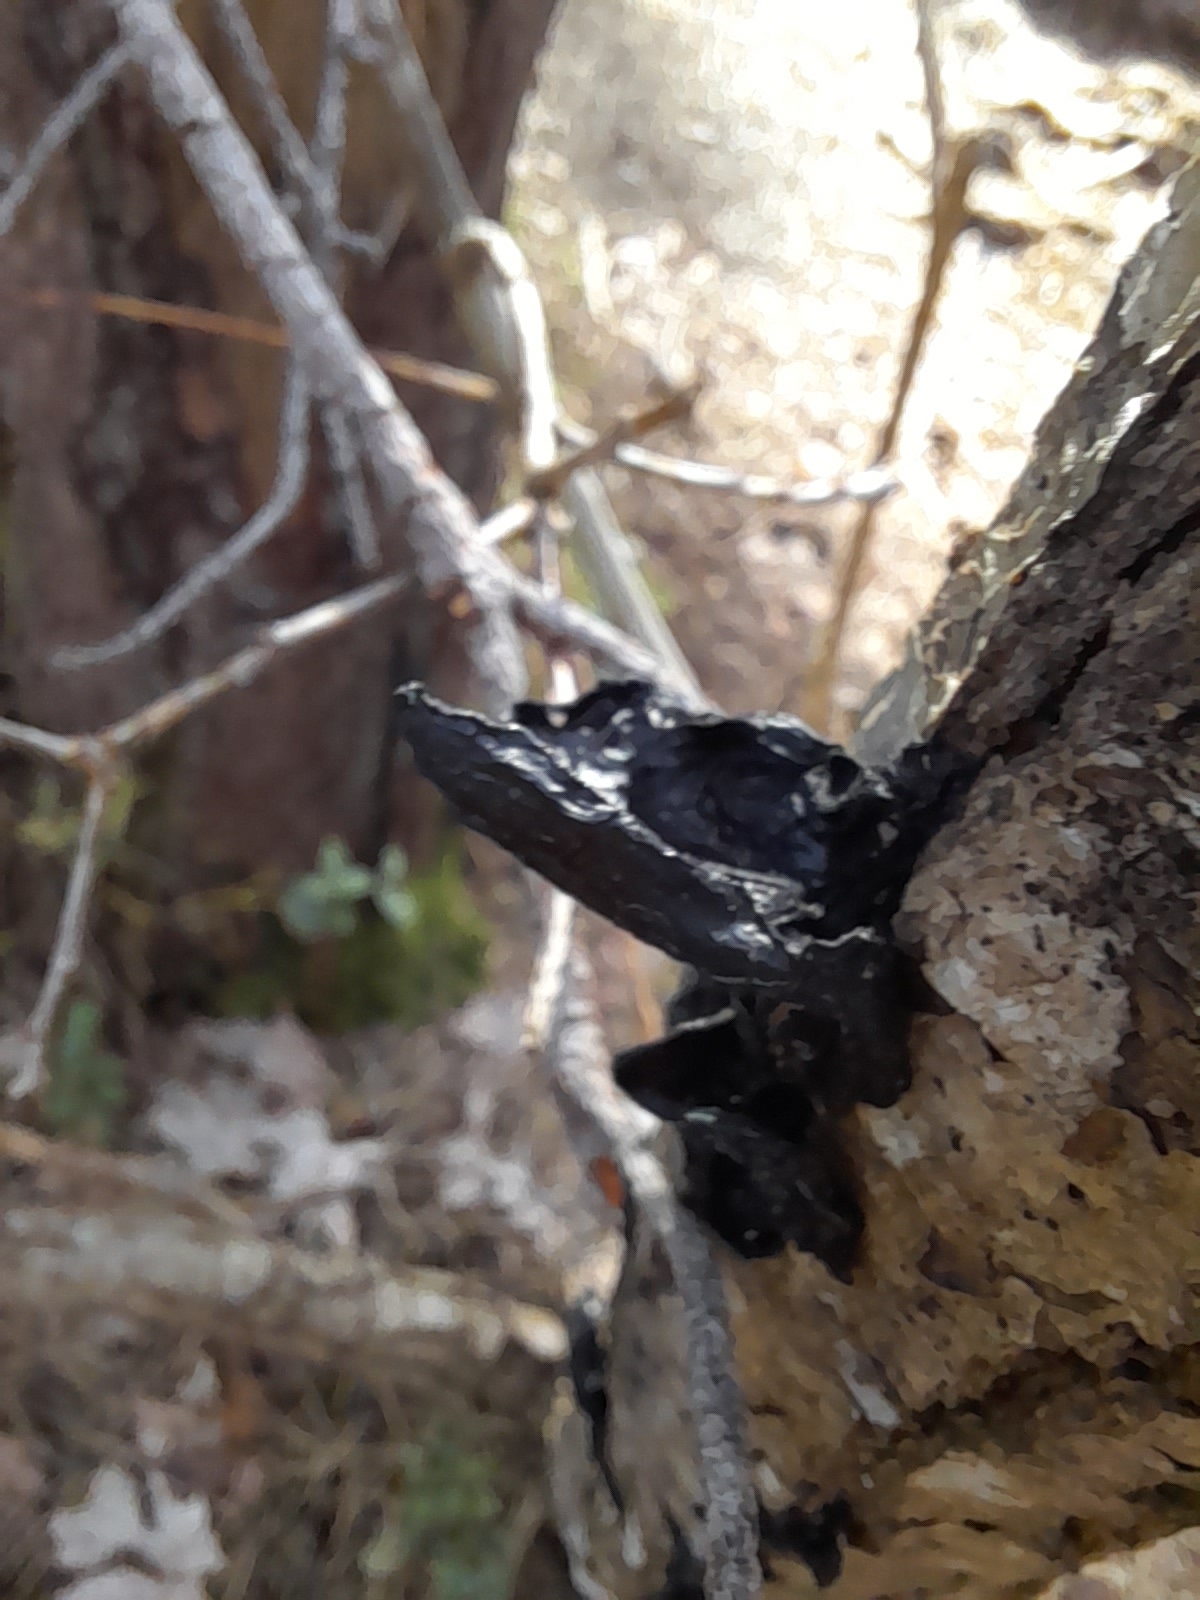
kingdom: Fungi
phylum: Basidiomycota
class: Agaricomycetes
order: Auriculariales
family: Auriculariaceae
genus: Exidia
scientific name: Exidia nigricans
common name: almindelig bævretop
